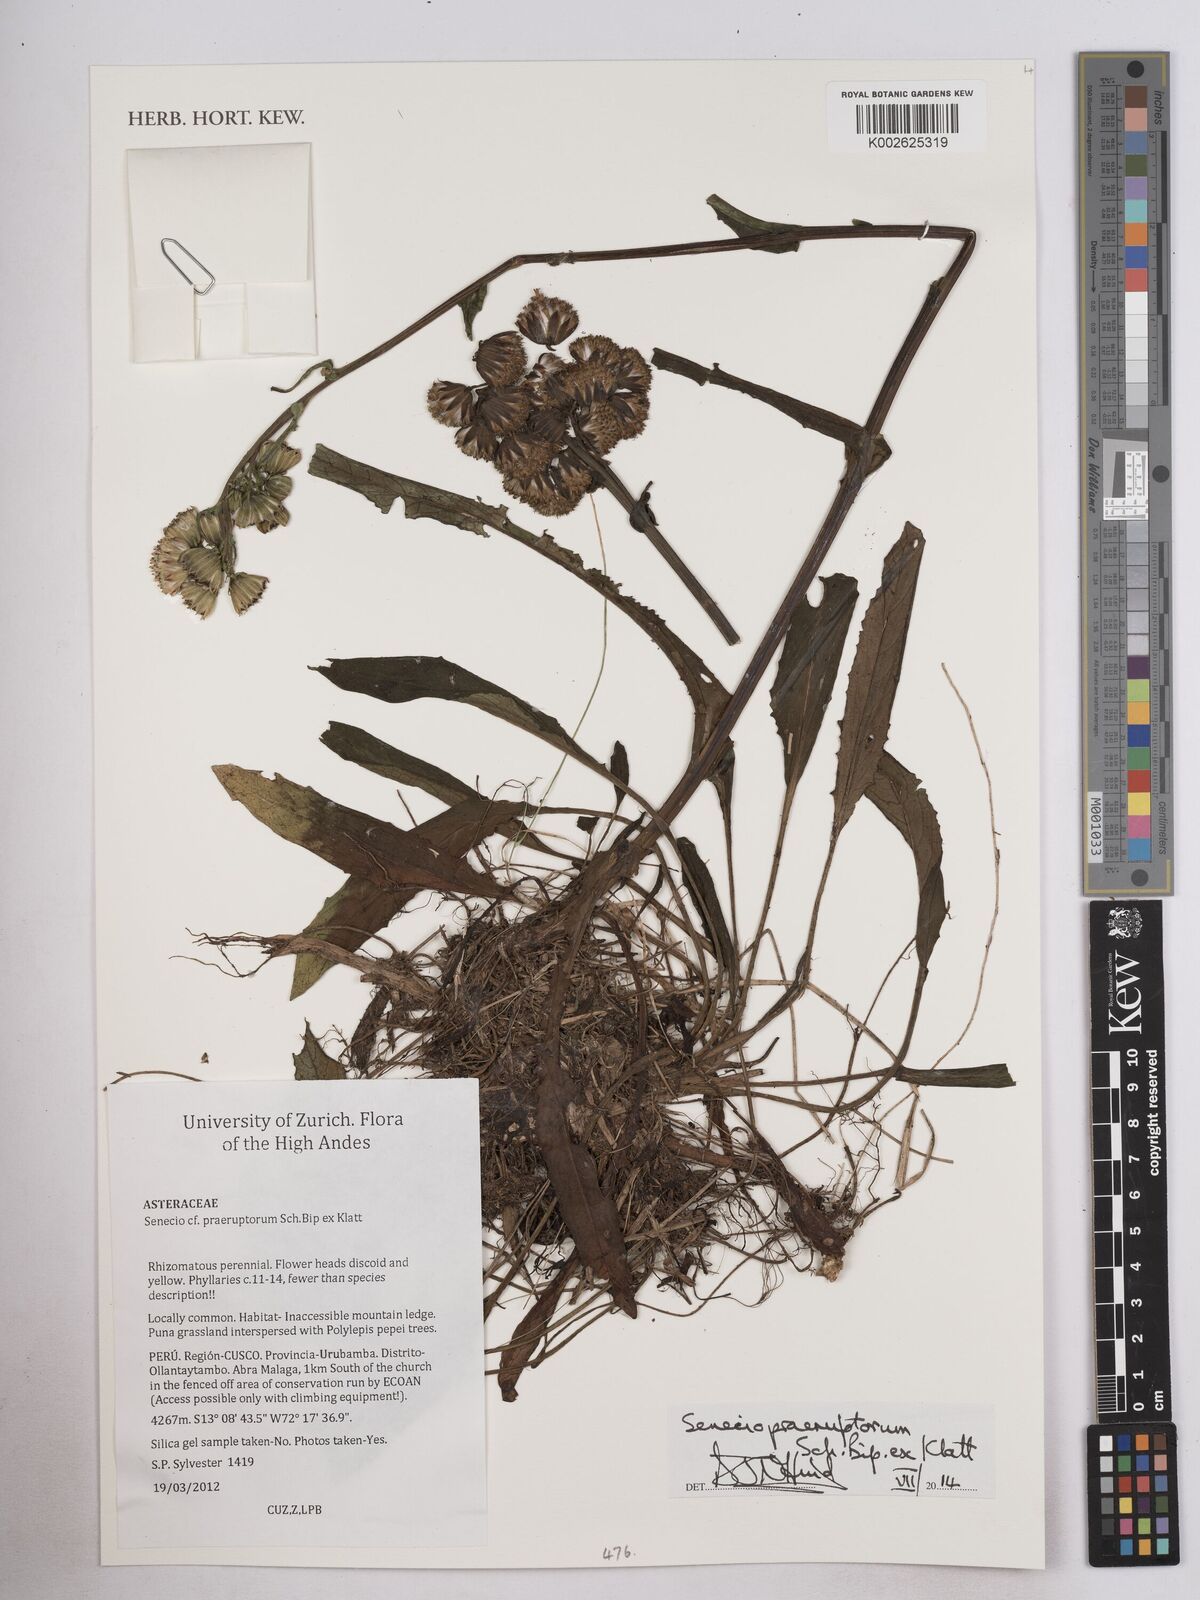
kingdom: Plantae
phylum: Tracheophyta
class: Magnoliopsida
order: Asterales
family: Asteraceae
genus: Senecio
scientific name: Senecio praeruptorum
